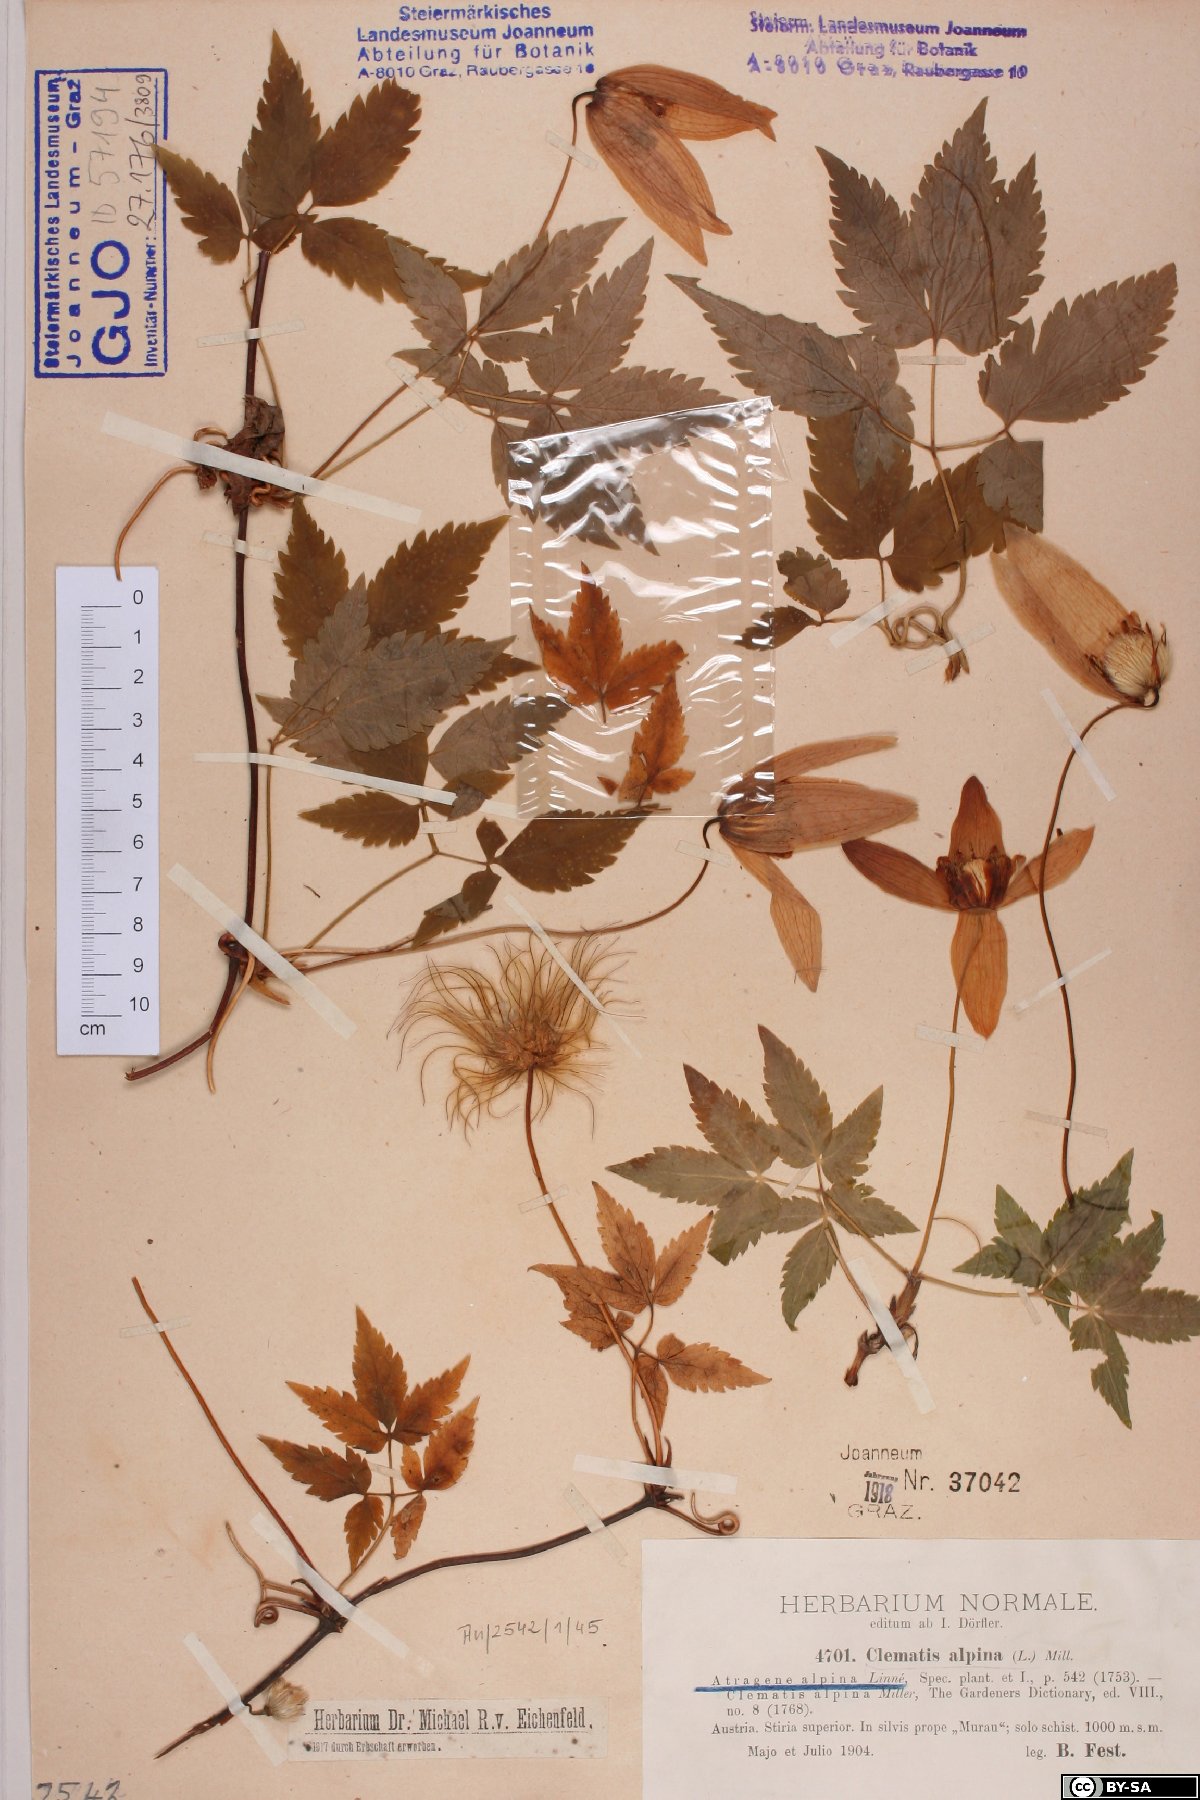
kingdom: Plantae
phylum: Tracheophyta
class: Magnoliopsida
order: Ranunculales
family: Ranunculaceae
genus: Clematis
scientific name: Clematis alpina
